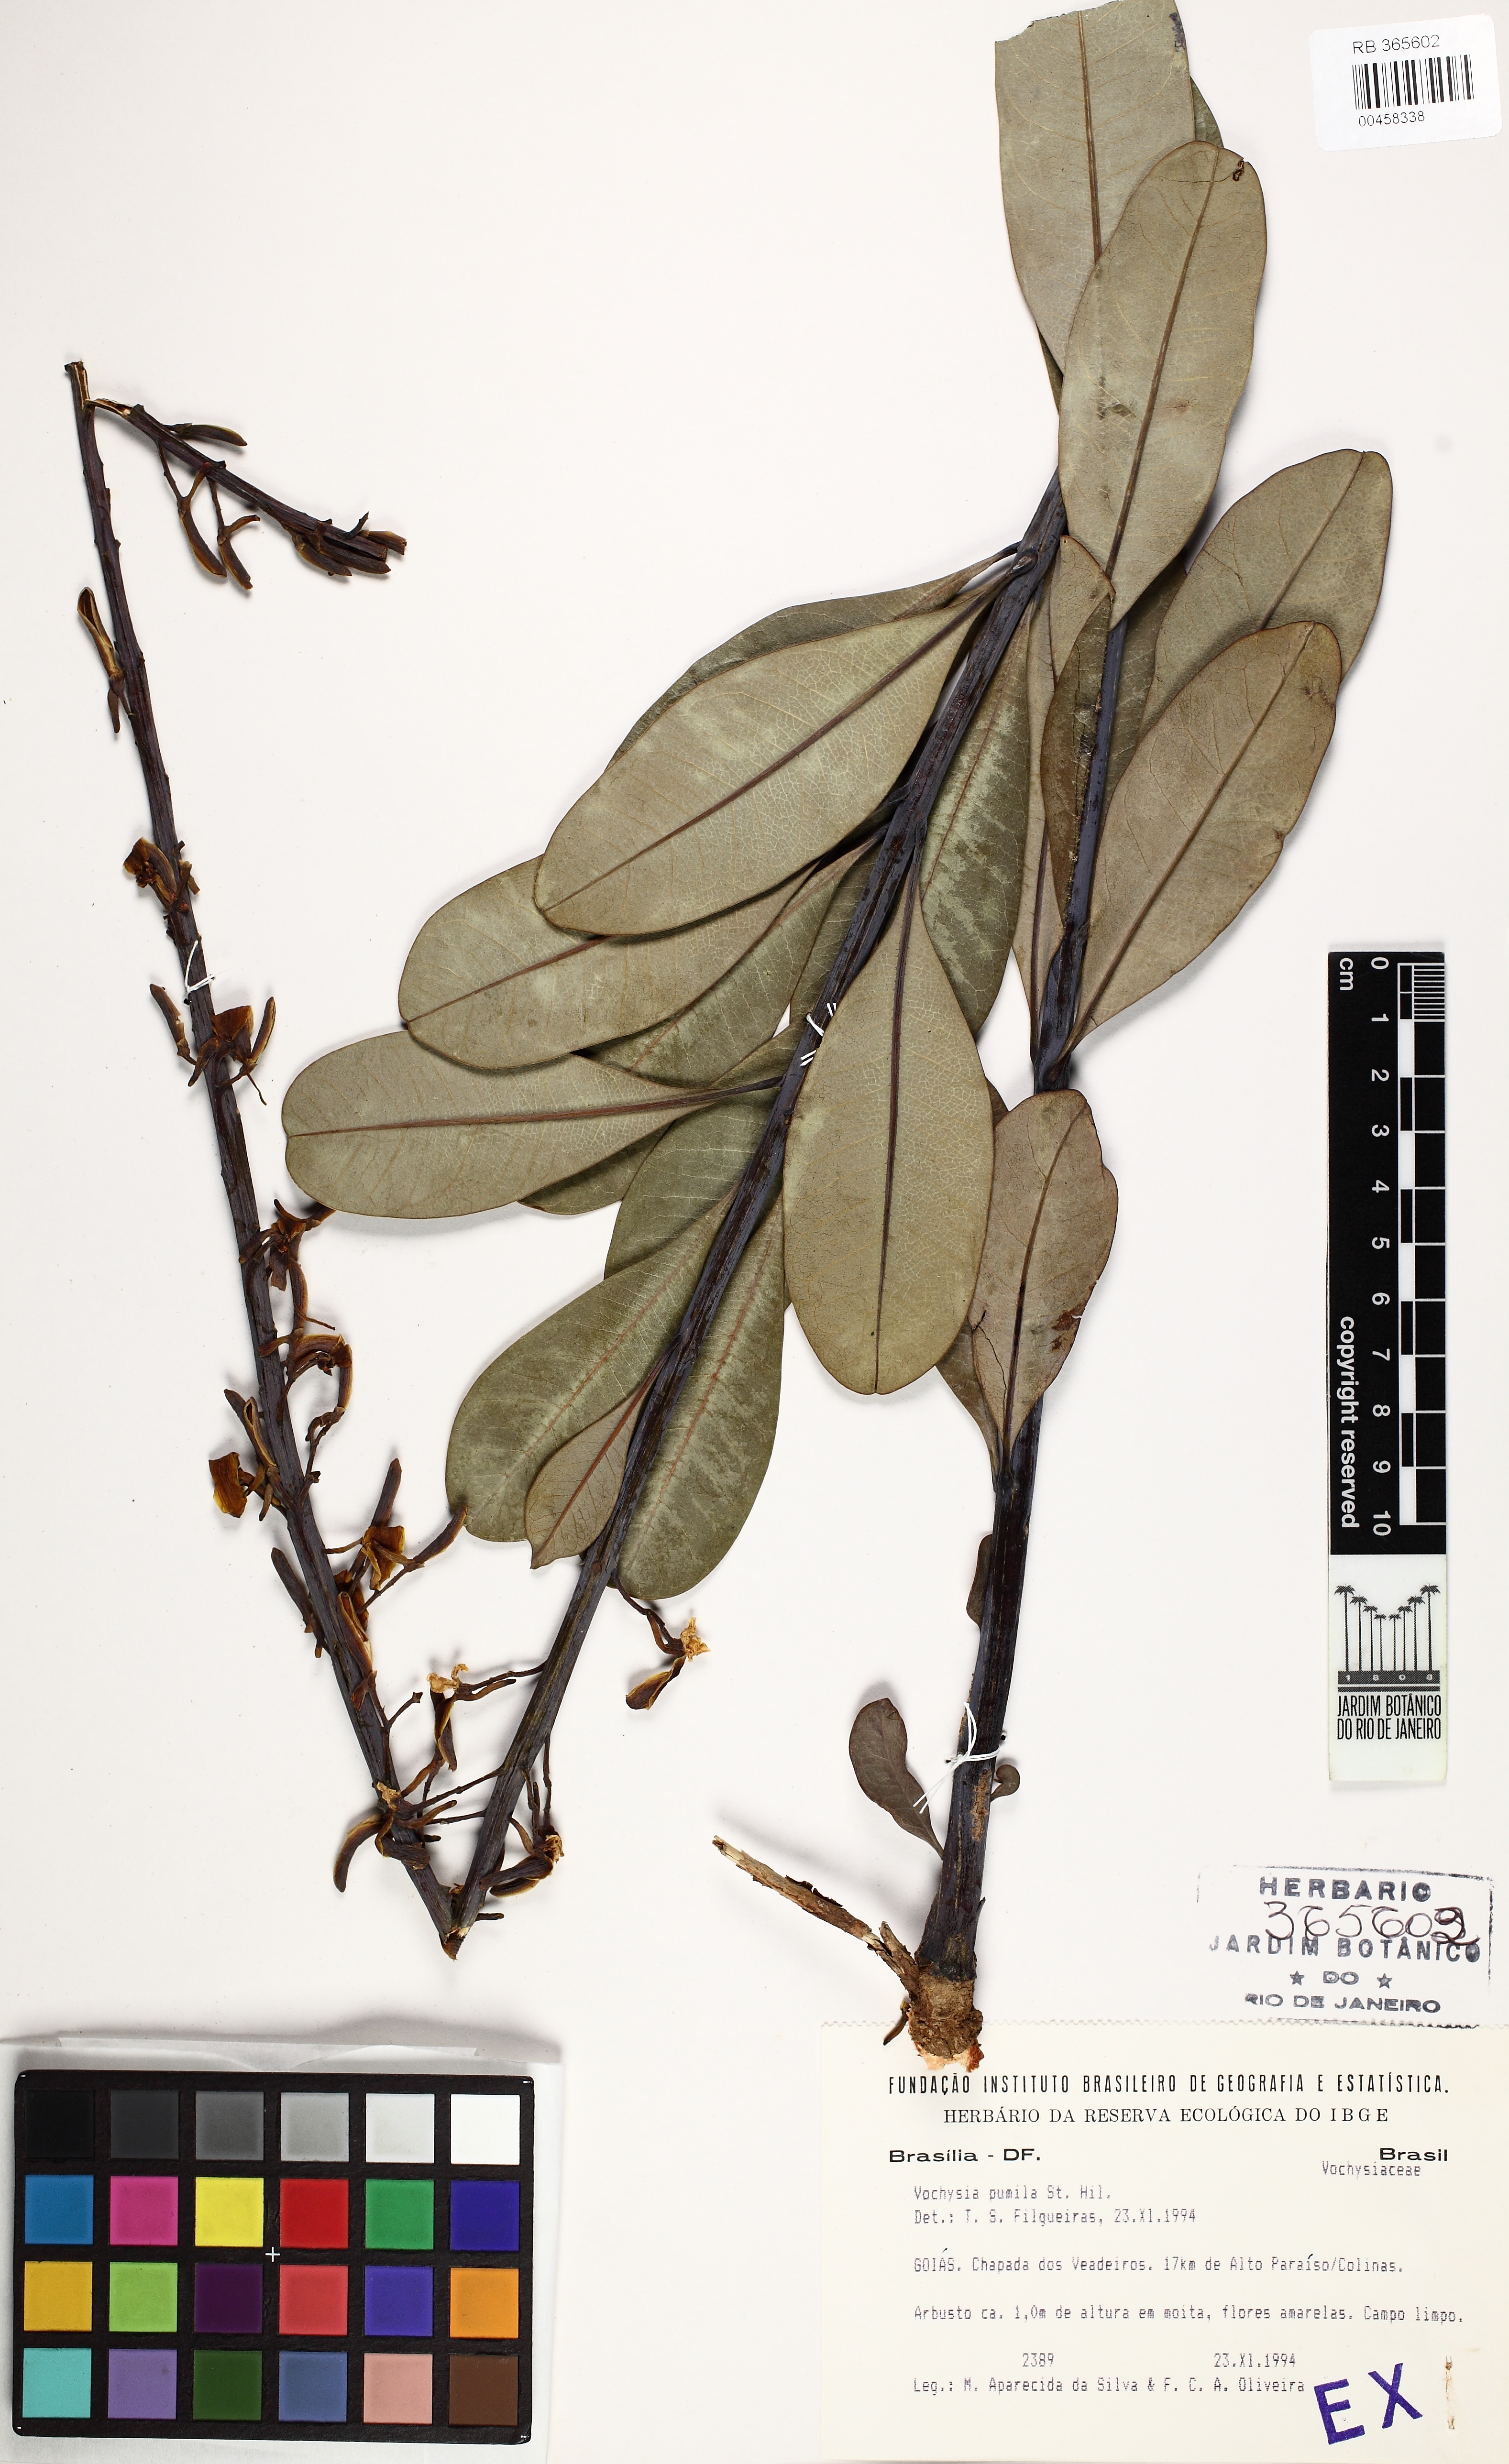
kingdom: Plantae
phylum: Tracheophyta
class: Magnoliopsida
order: Myrtales
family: Vochysiaceae
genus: Vochysia
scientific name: Vochysia pumila
